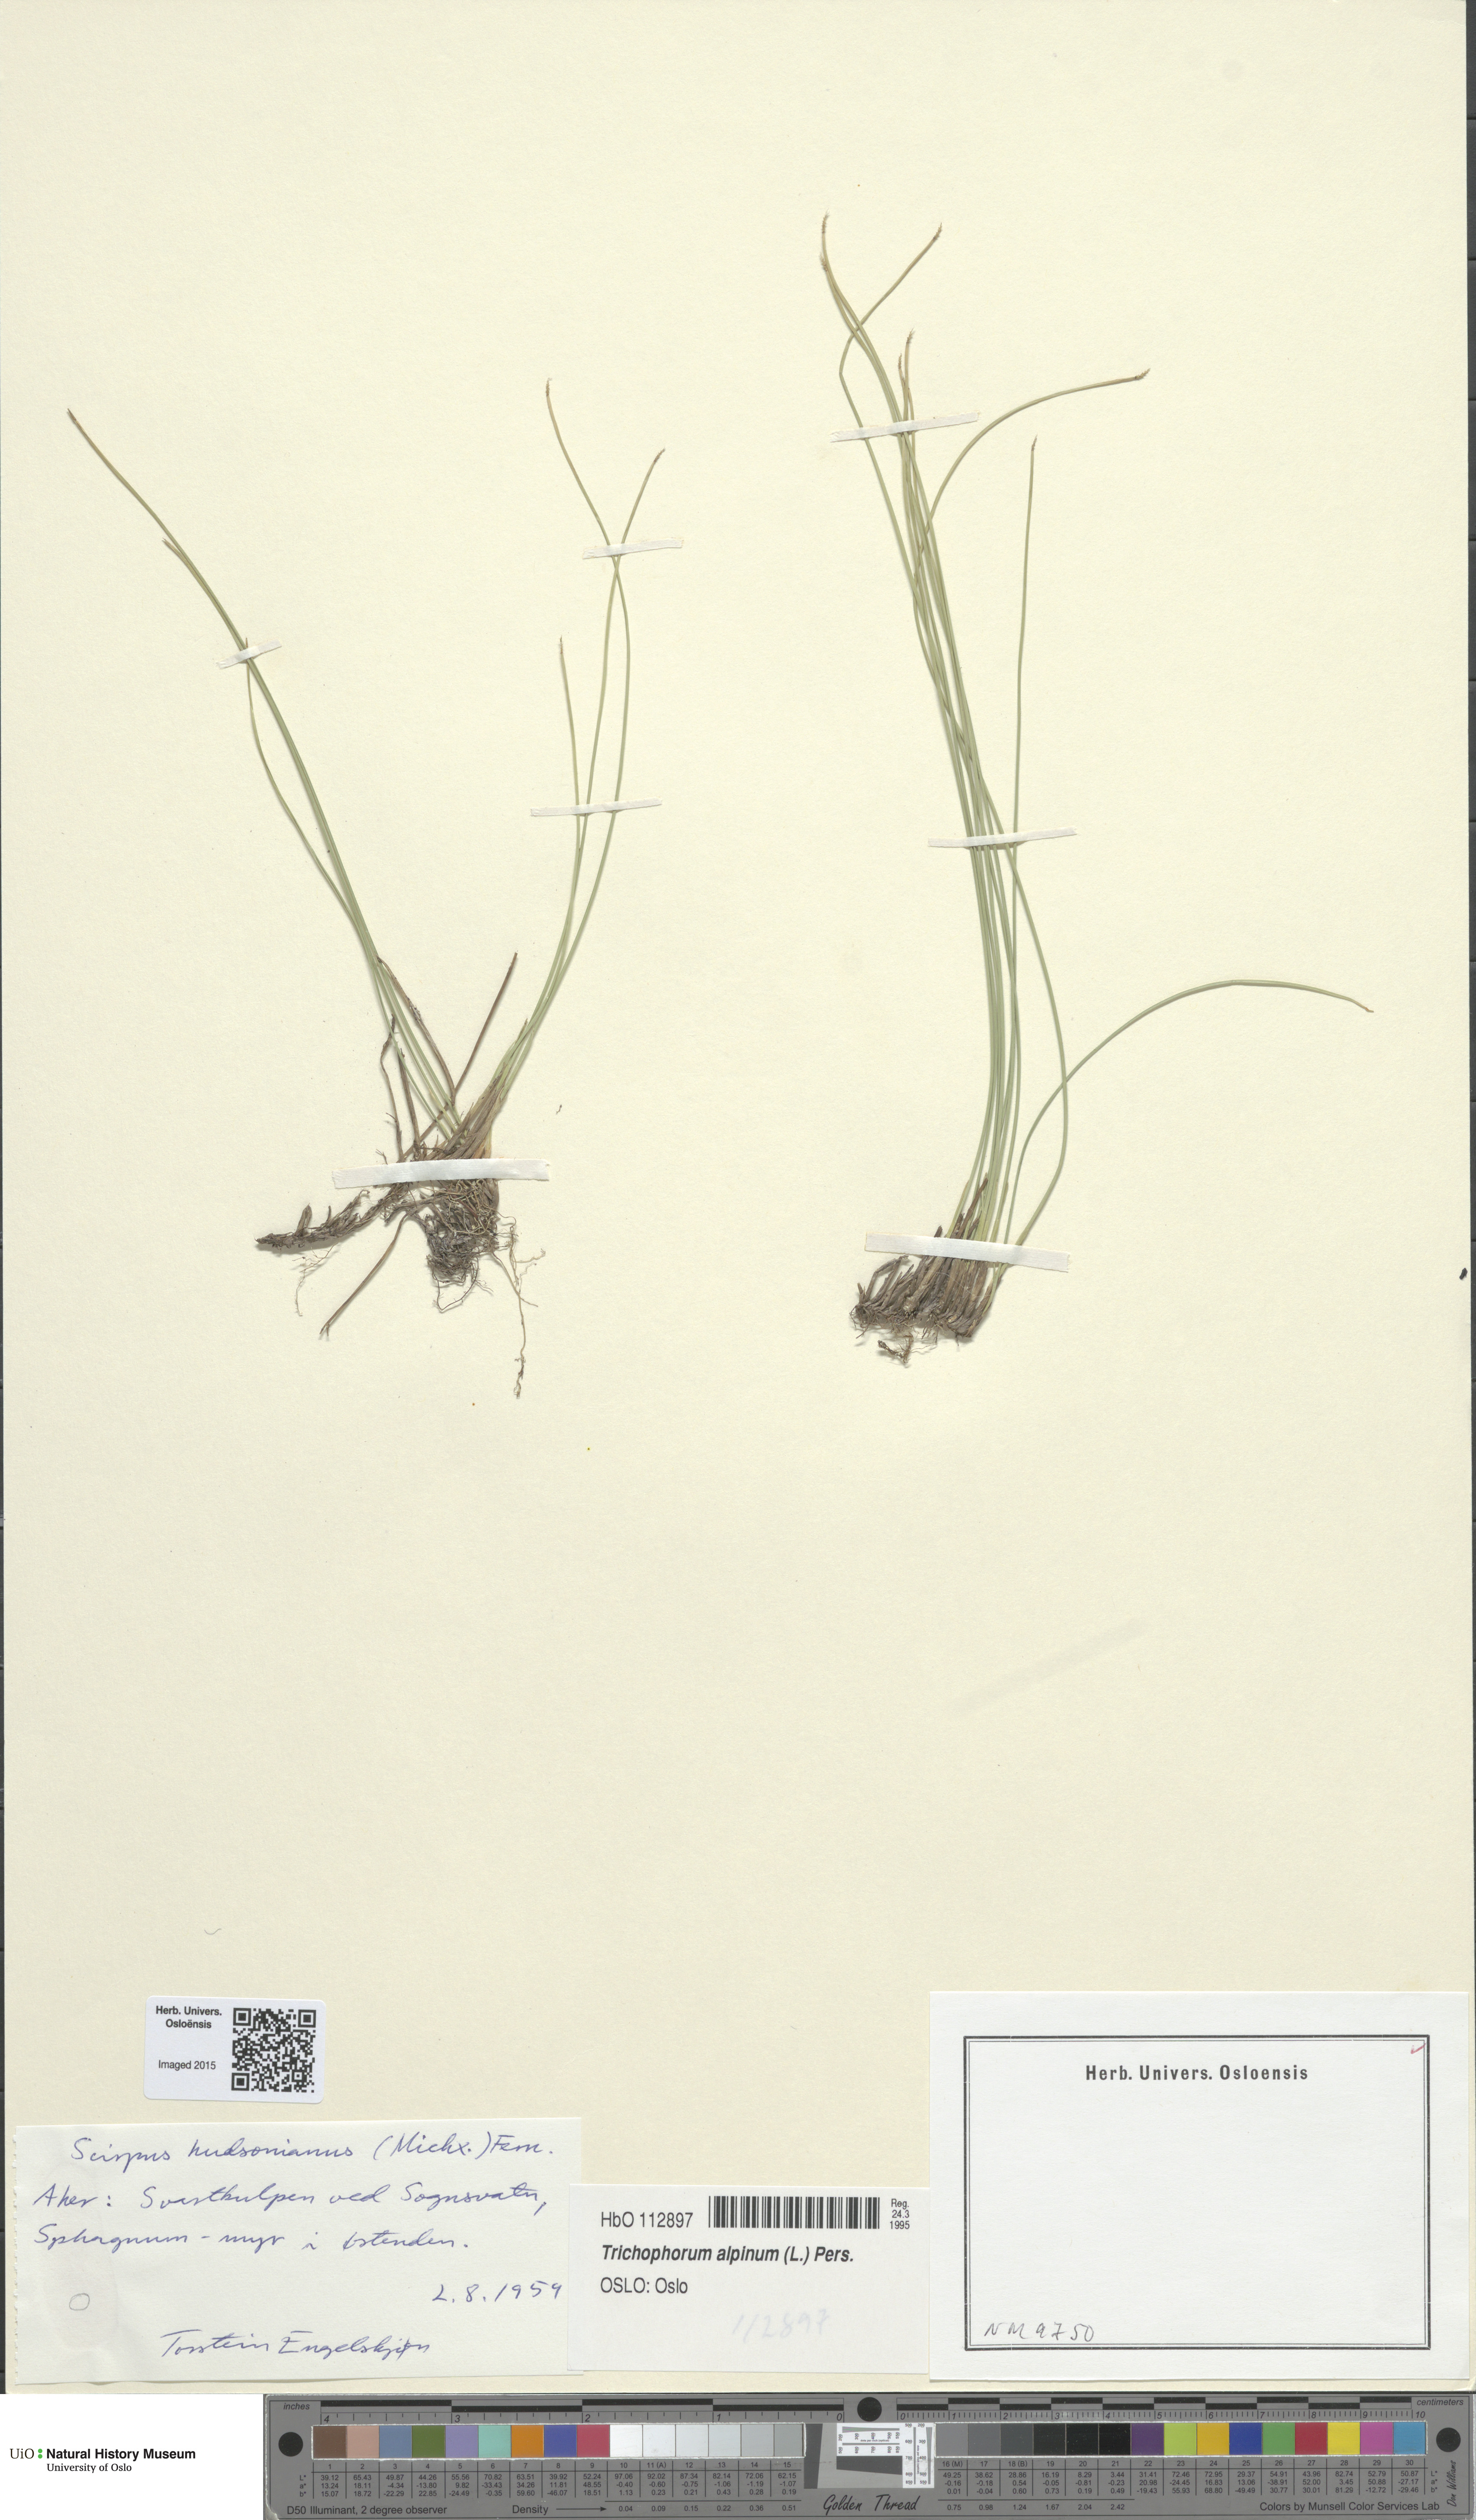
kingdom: Plantae
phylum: Tracheophyta
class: Liliopsida
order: Poales
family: Cyperaceae
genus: Trichophorum
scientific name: Trichophorum alpinum
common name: Alpine bulrush
